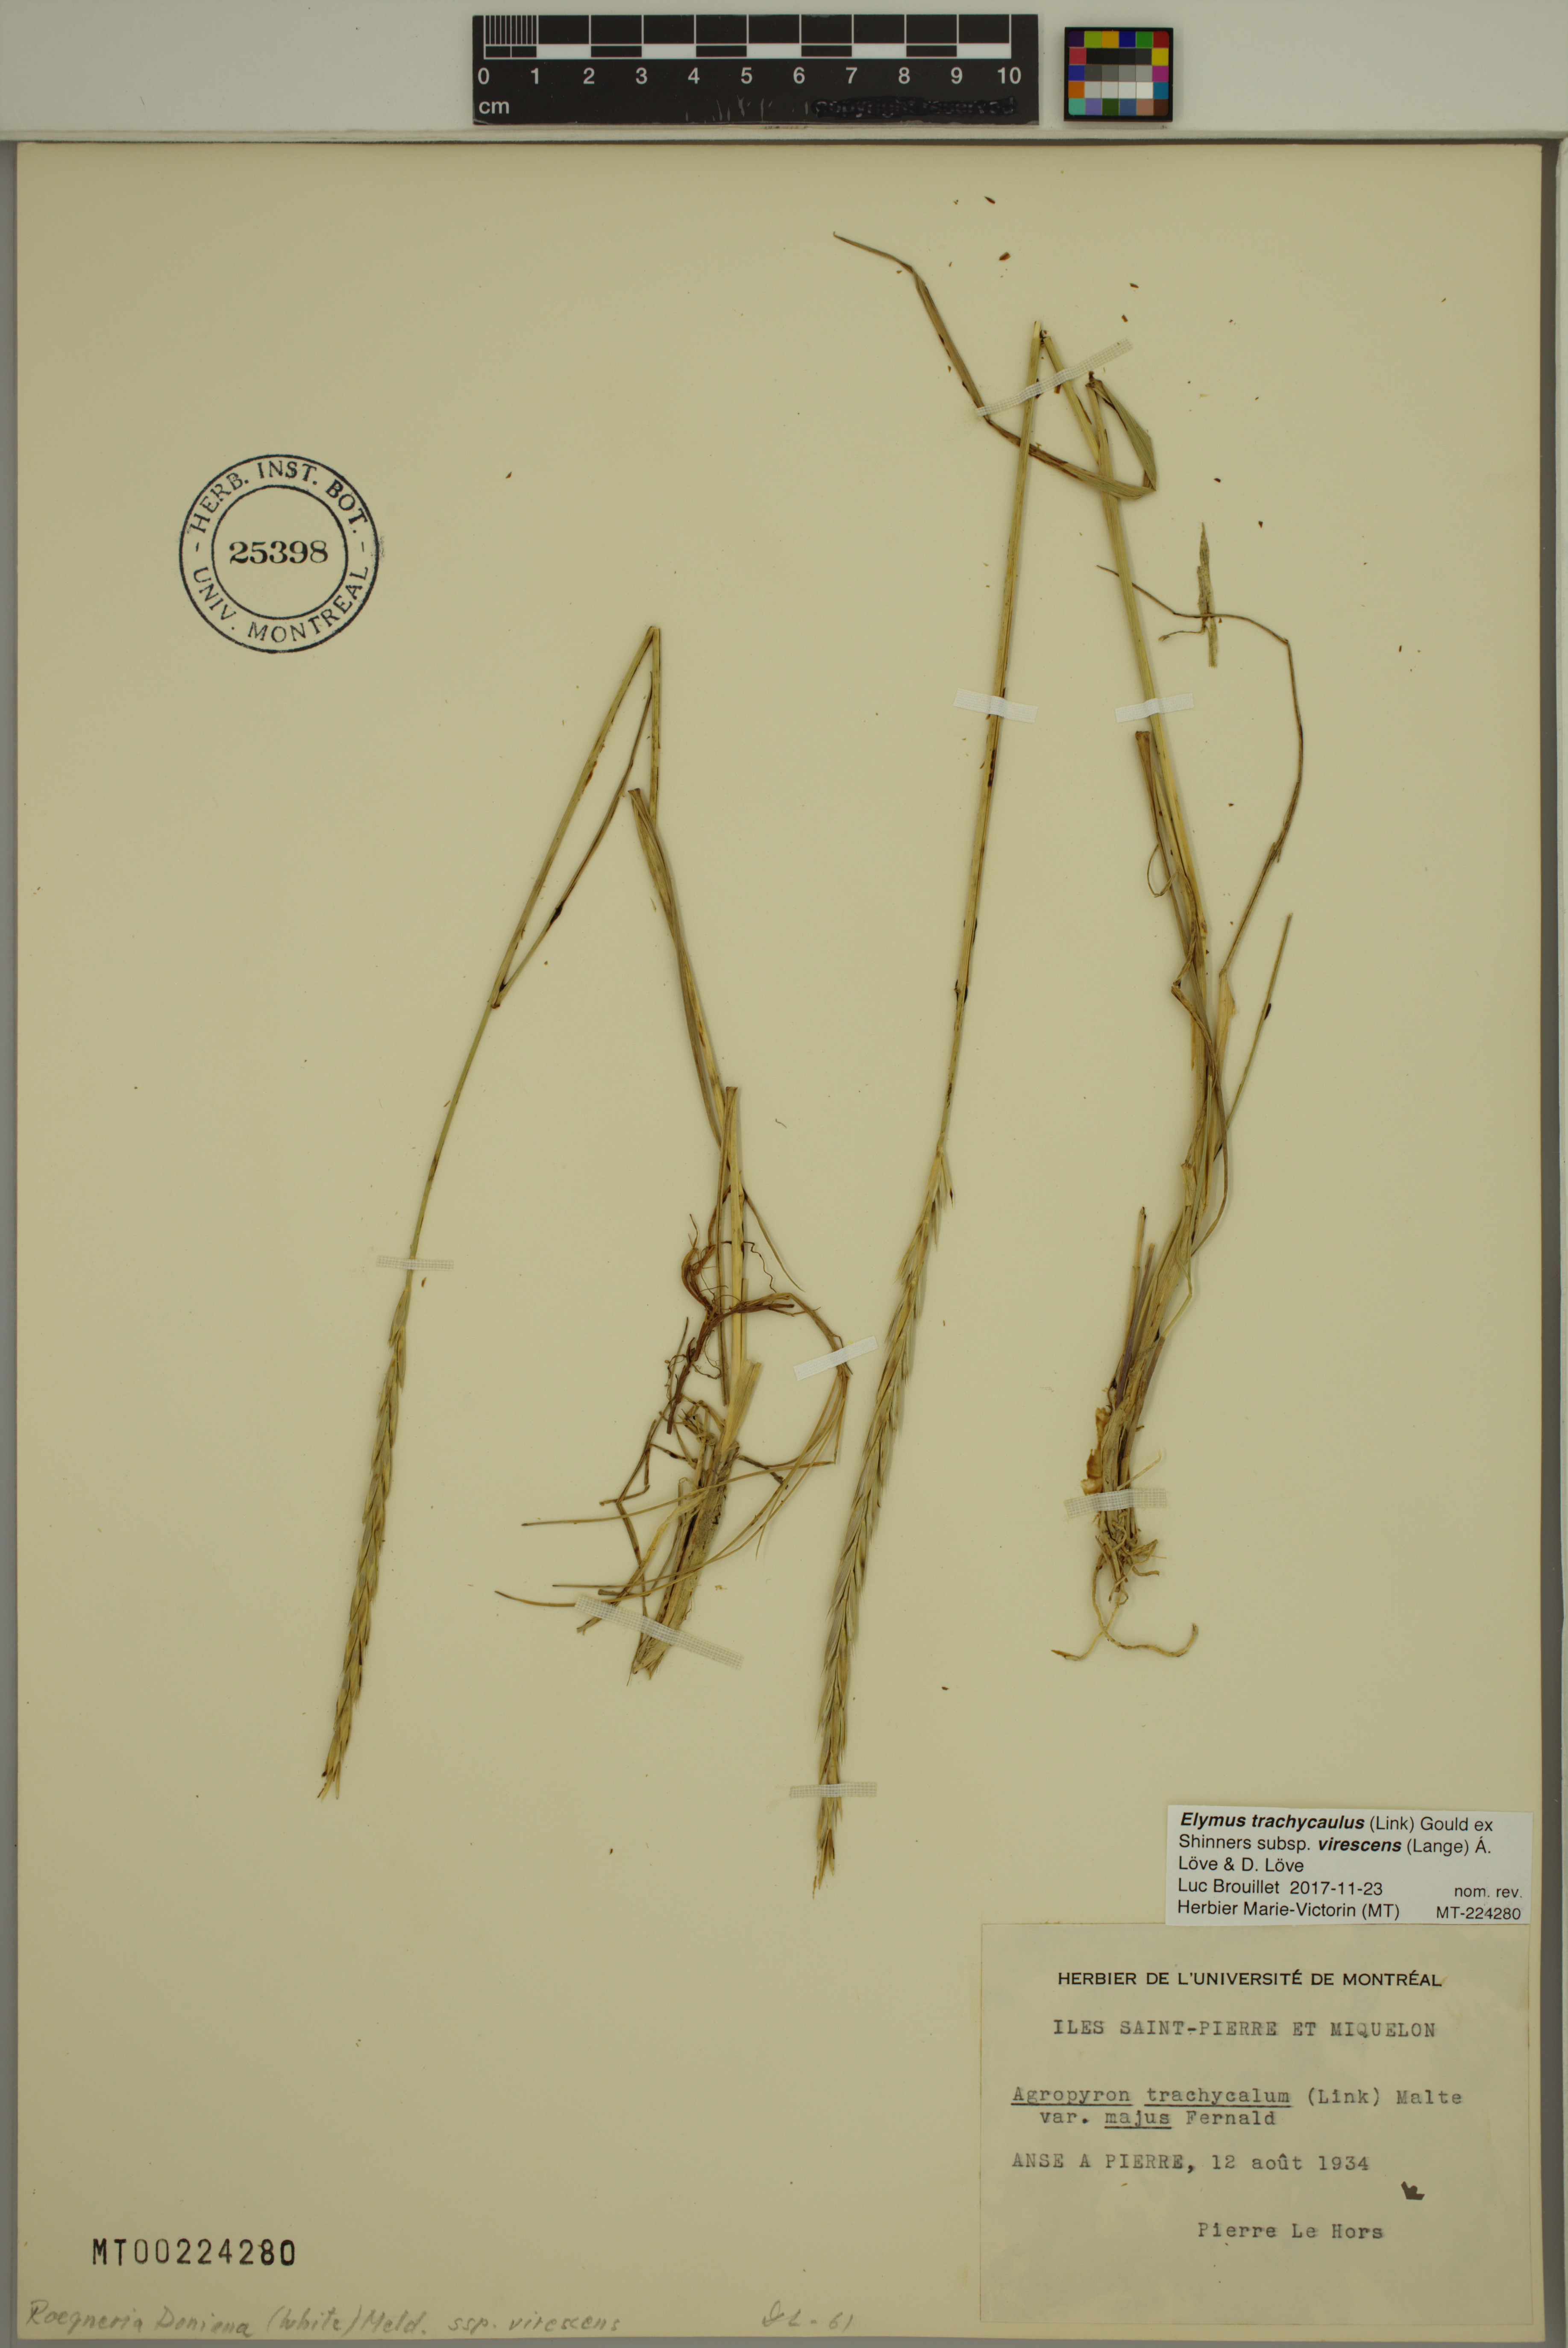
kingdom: Plantae
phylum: Tracheophyta
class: Liliopsida
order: Poales
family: Poaceae
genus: Elymus
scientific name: Elymus violaceus
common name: Arctic wheatgrass
